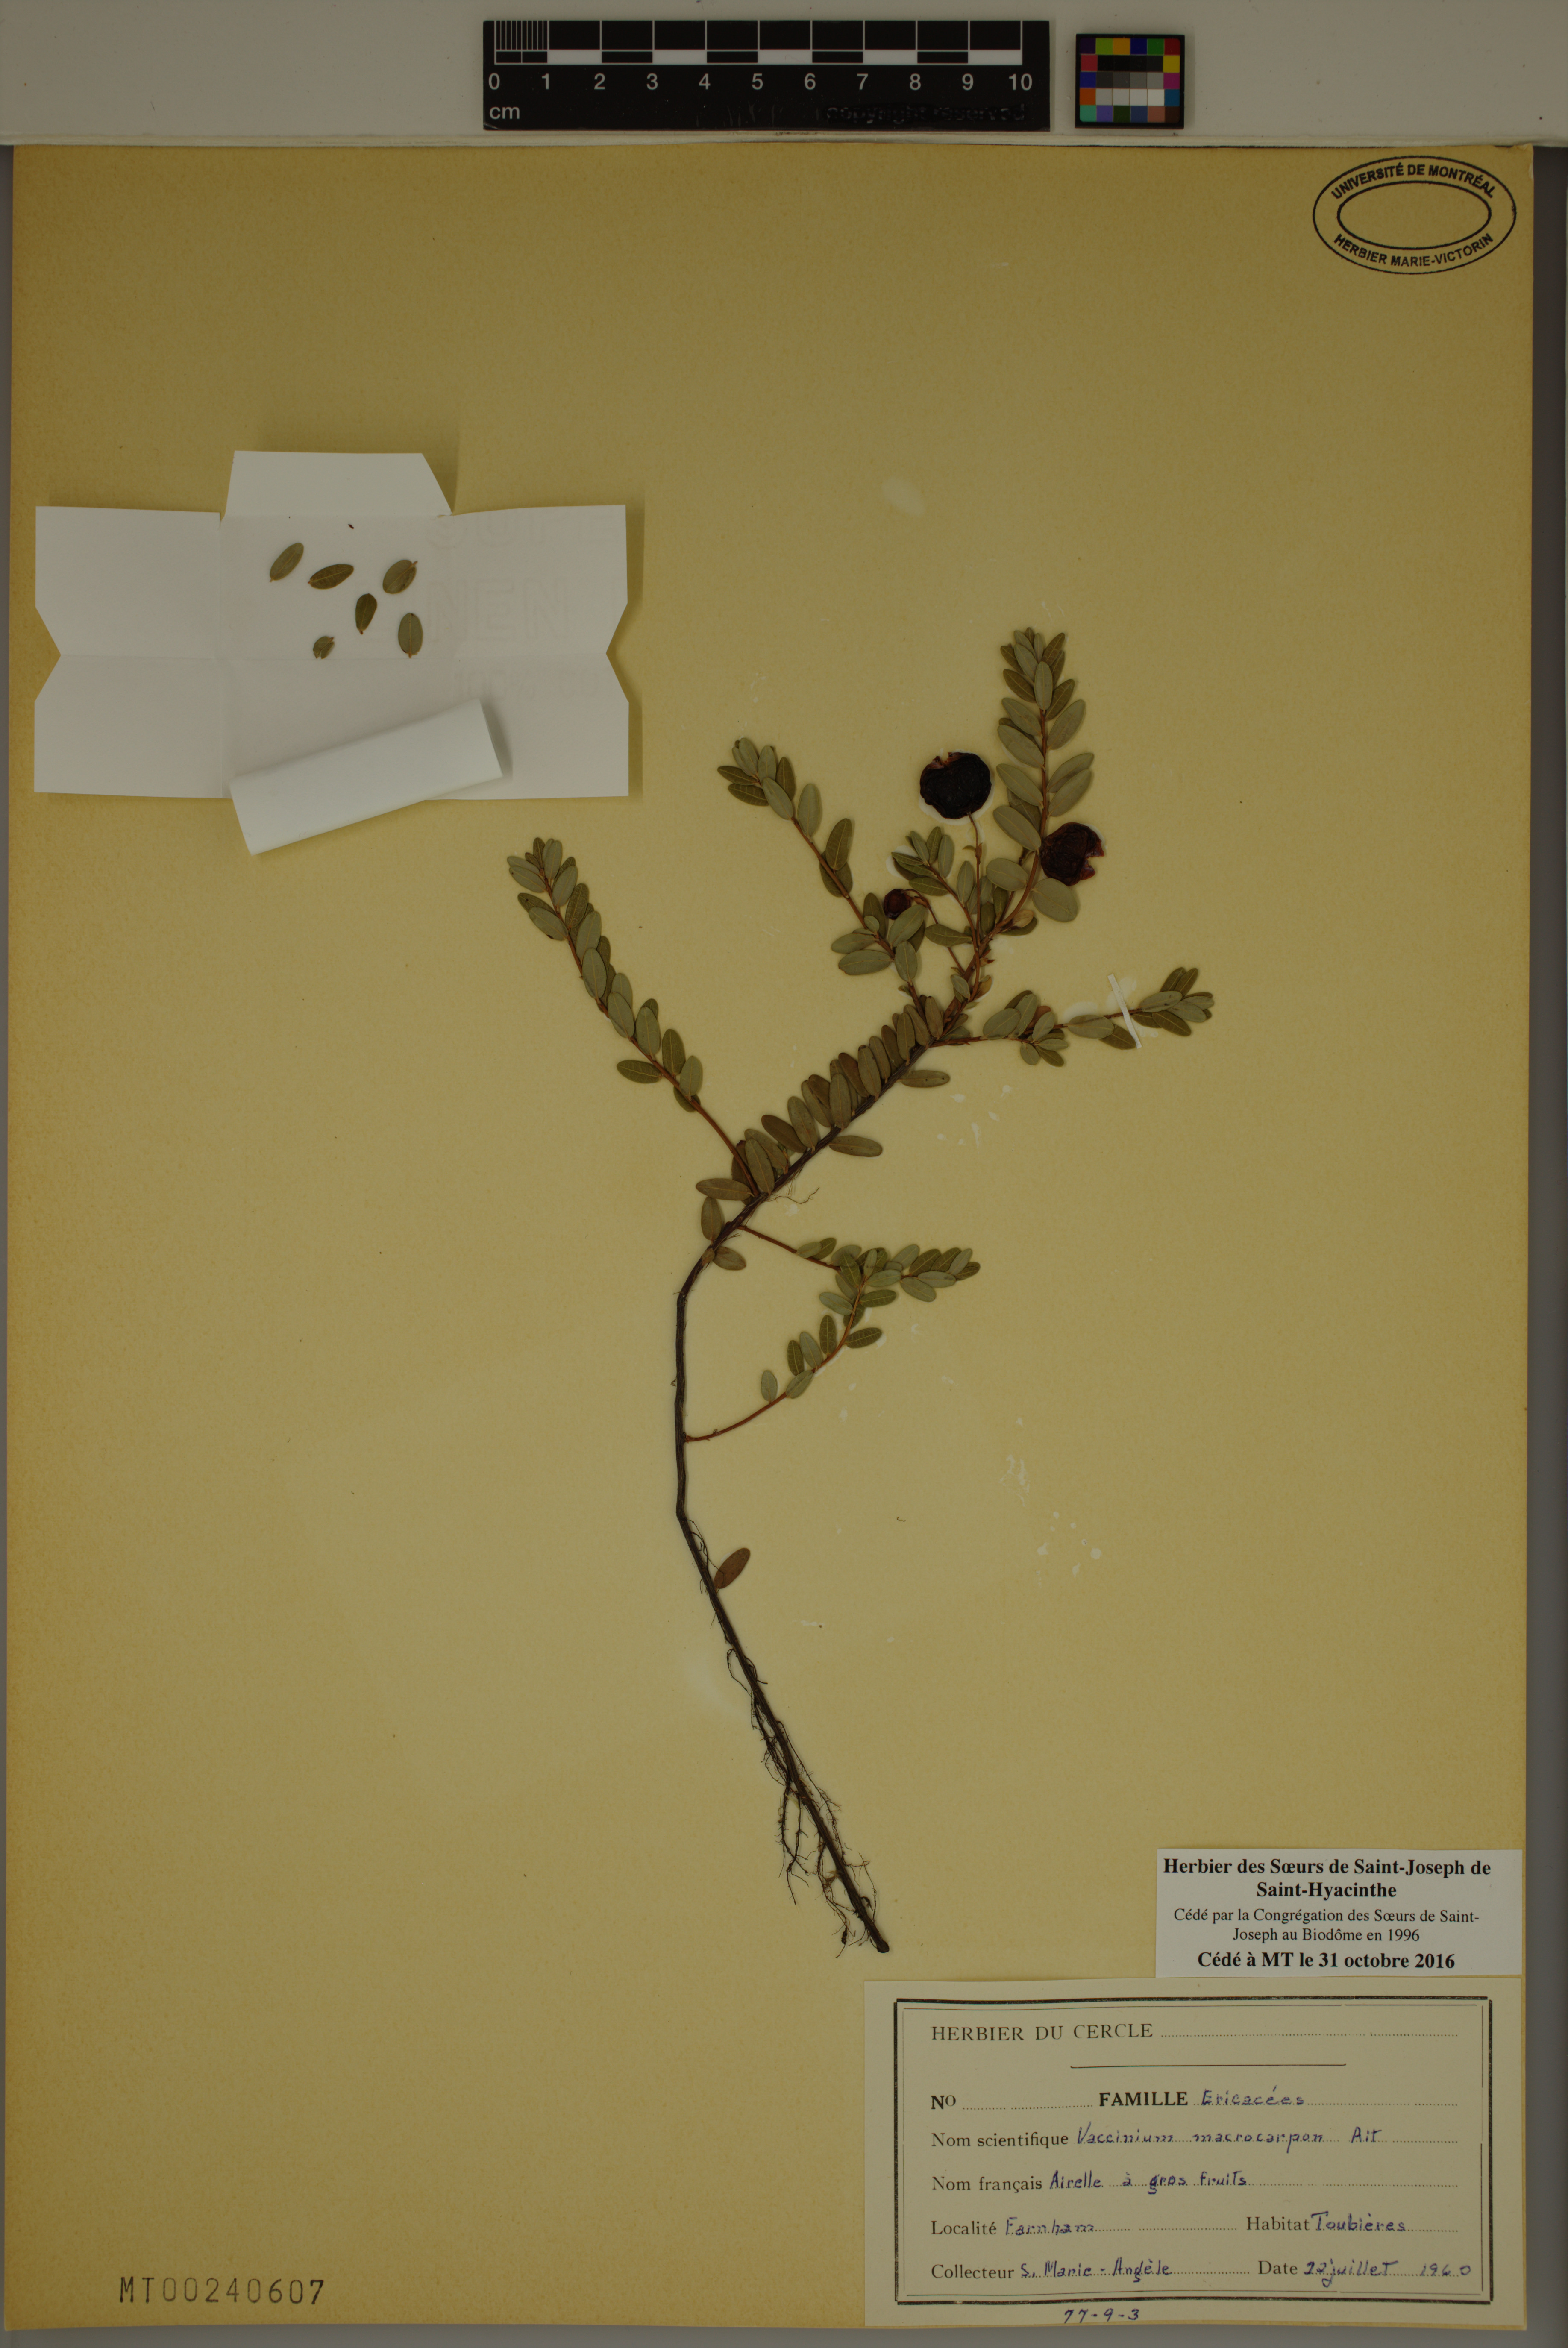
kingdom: Plantae
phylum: Tracheophyta
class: Magnoliopsida
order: Ericales
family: Ericaceae
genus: Vaccinium
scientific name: Vaccinium macrocarpon
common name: American cranberry
